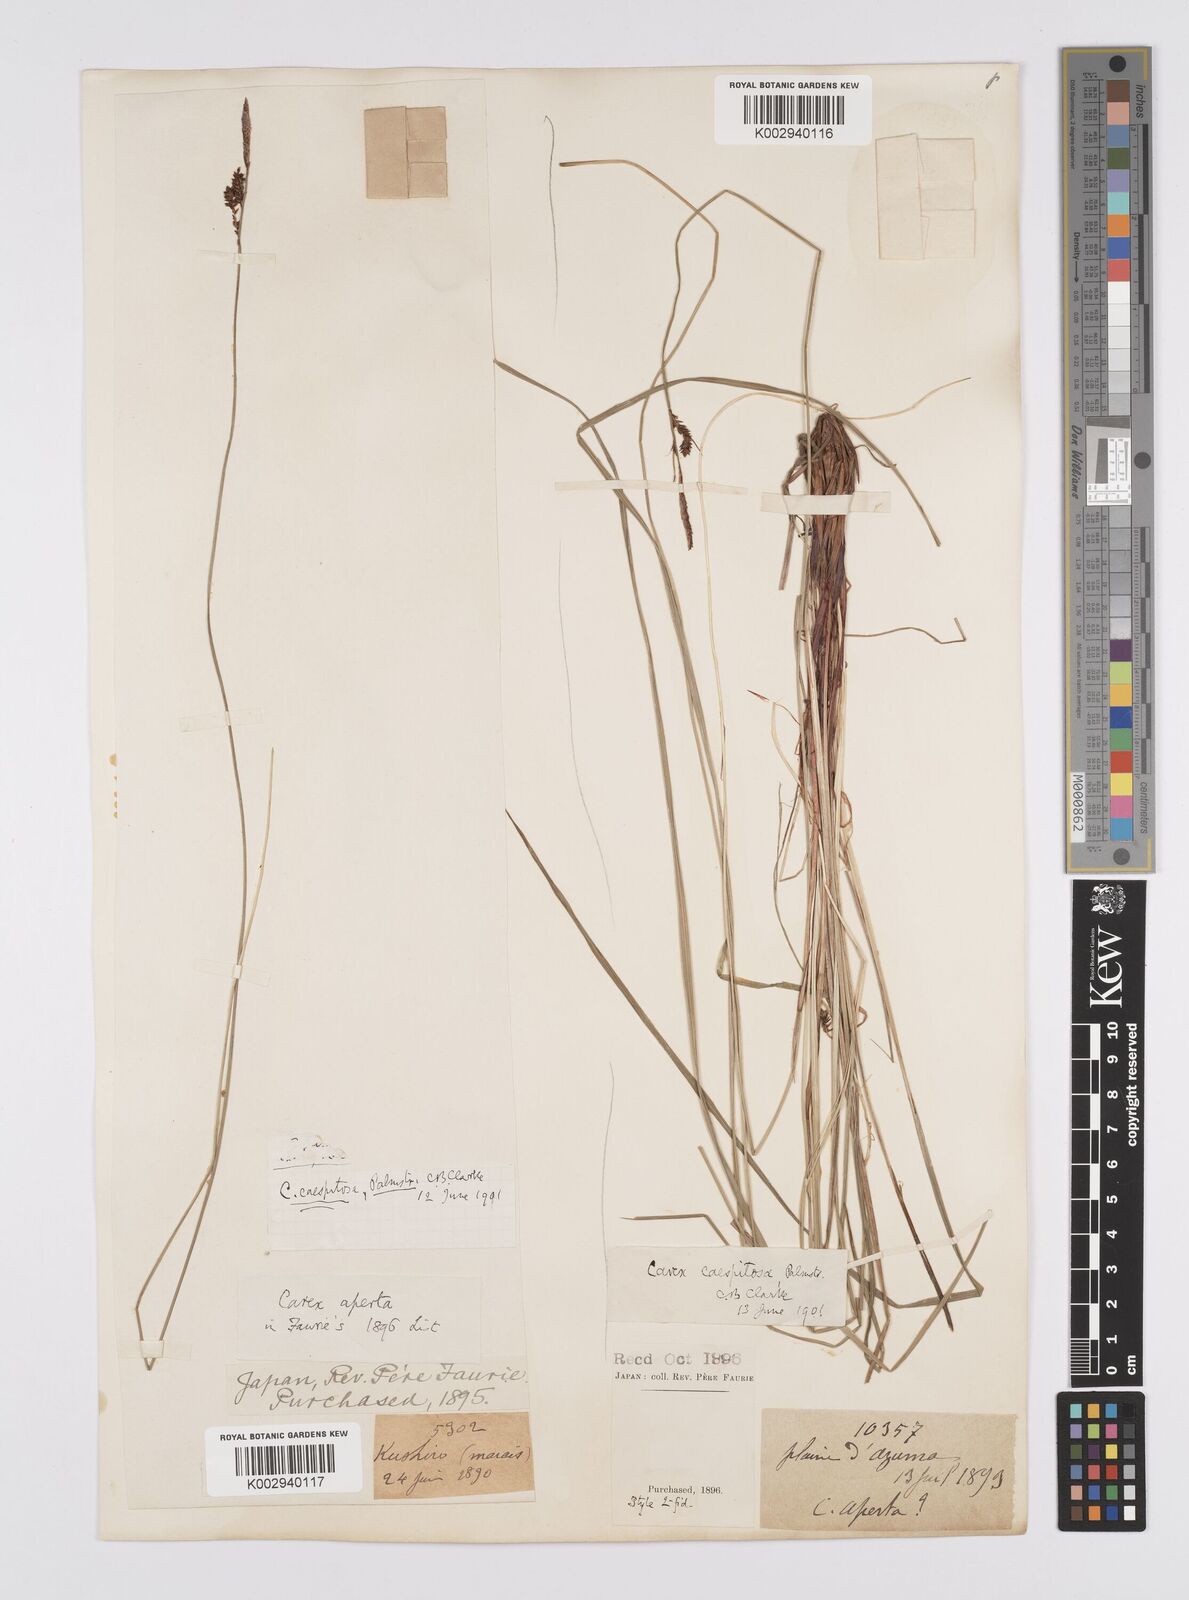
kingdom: Plantae
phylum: Tracheophyta
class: Liliopsida
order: Poales
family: Cyperaceae
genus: Carex
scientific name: Carex cespitosa
